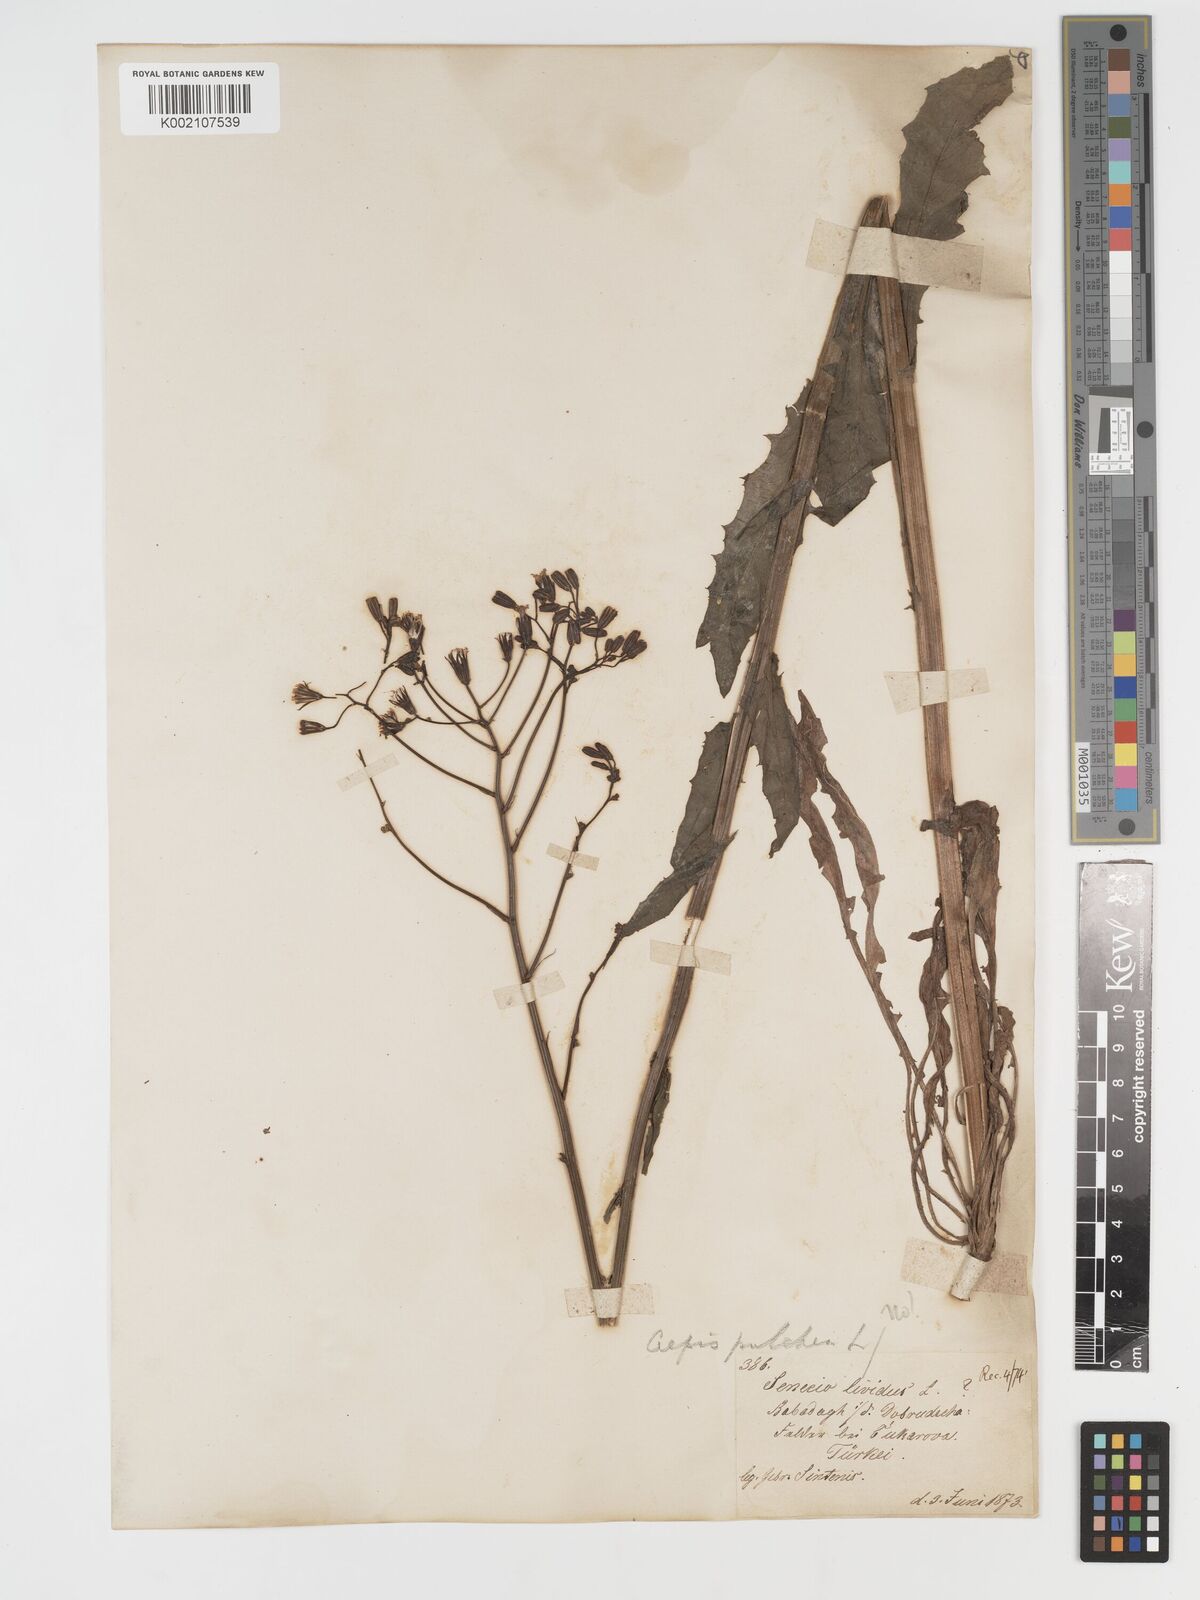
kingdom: Plantae
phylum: Tracheophyta
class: Magnoliopsida
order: Asterales
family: Asteraceae
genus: Crepis
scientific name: Crepis pulchra
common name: Hawk's-beard
